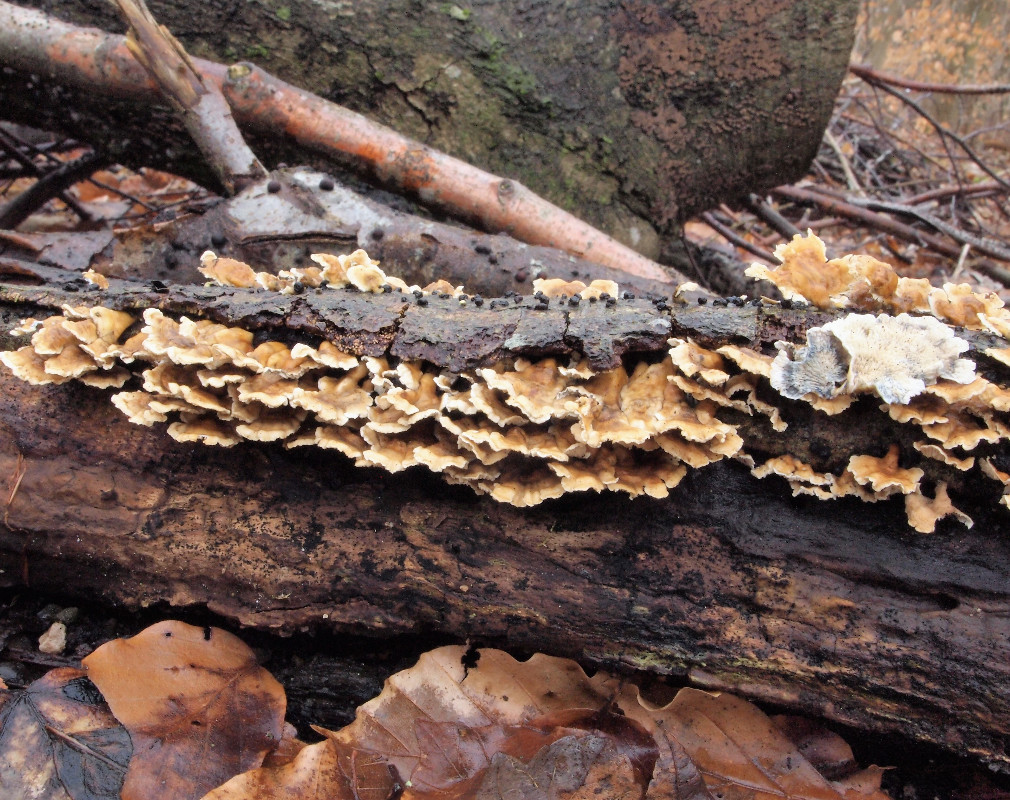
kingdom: Fungi
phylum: Basidiomycota
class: Agaricomycetes
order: Amylocorticiales
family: Amylocorticiaceae
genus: Plicaturopsis
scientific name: Plicaturopsis crispa
